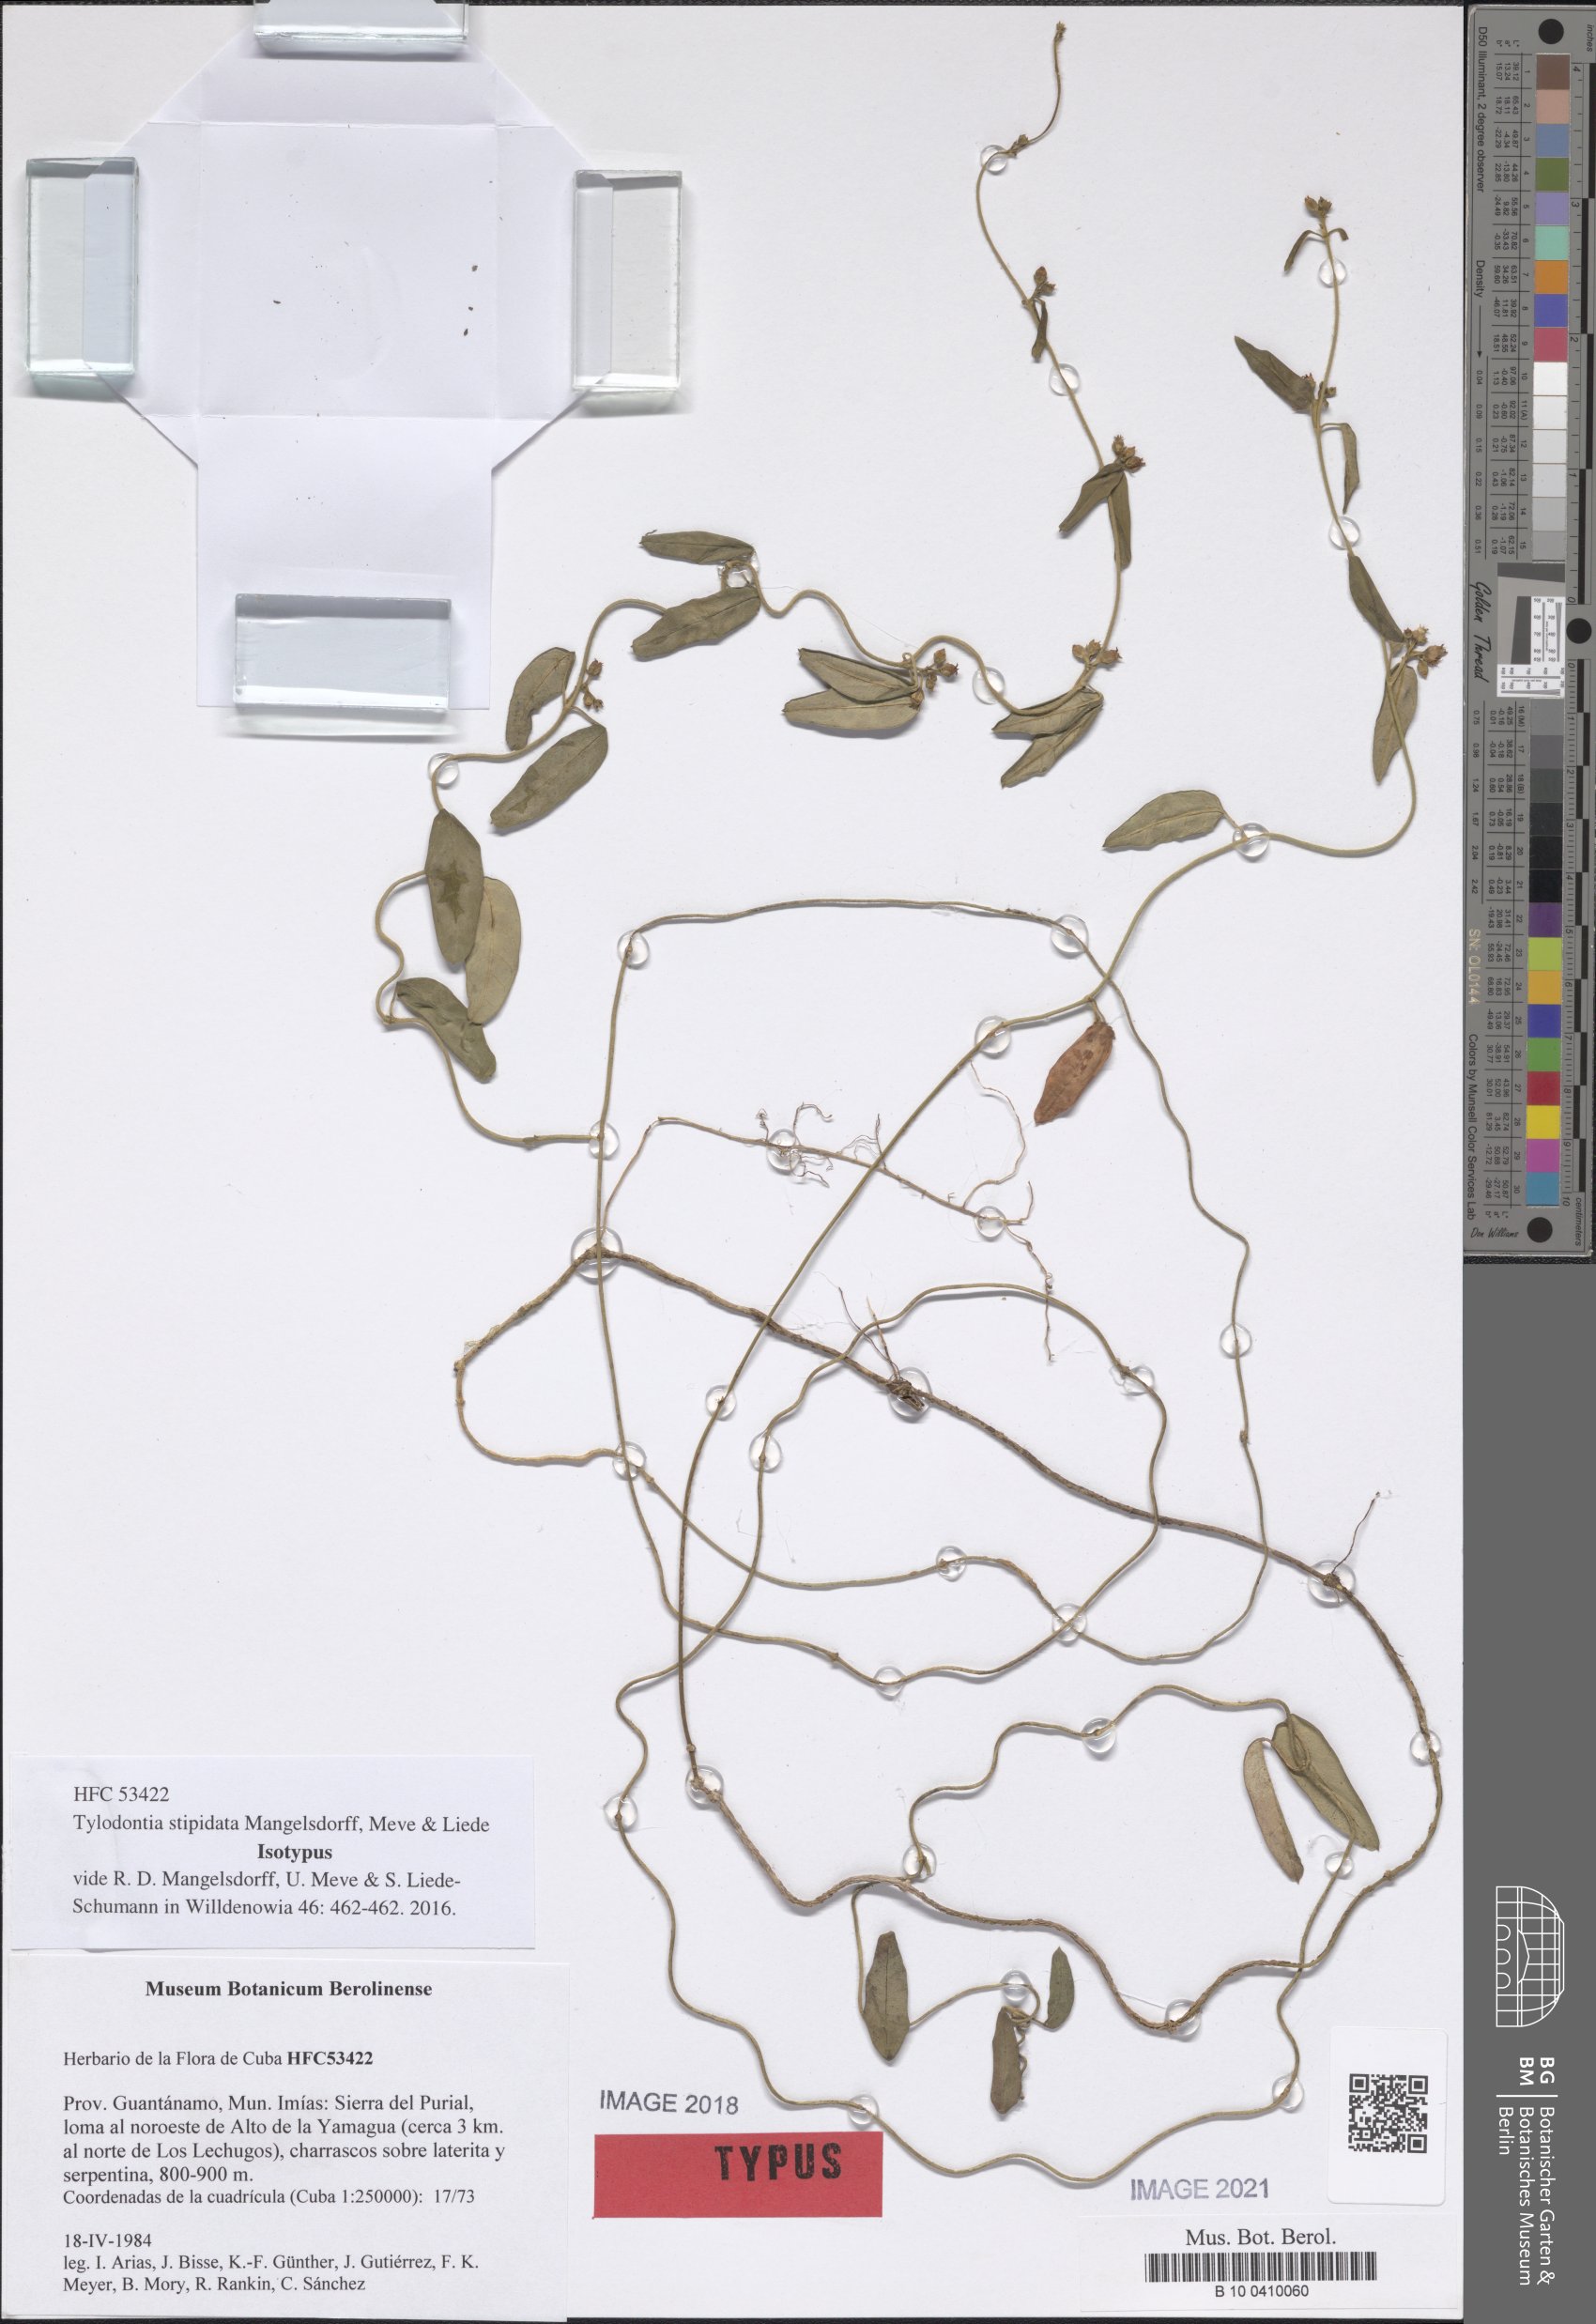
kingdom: Plantae
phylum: Tracheophyta
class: Magnoliopsida
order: Gentianales
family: Apocynaceae
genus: Tylodontia
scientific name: Tylodontia stipitata
